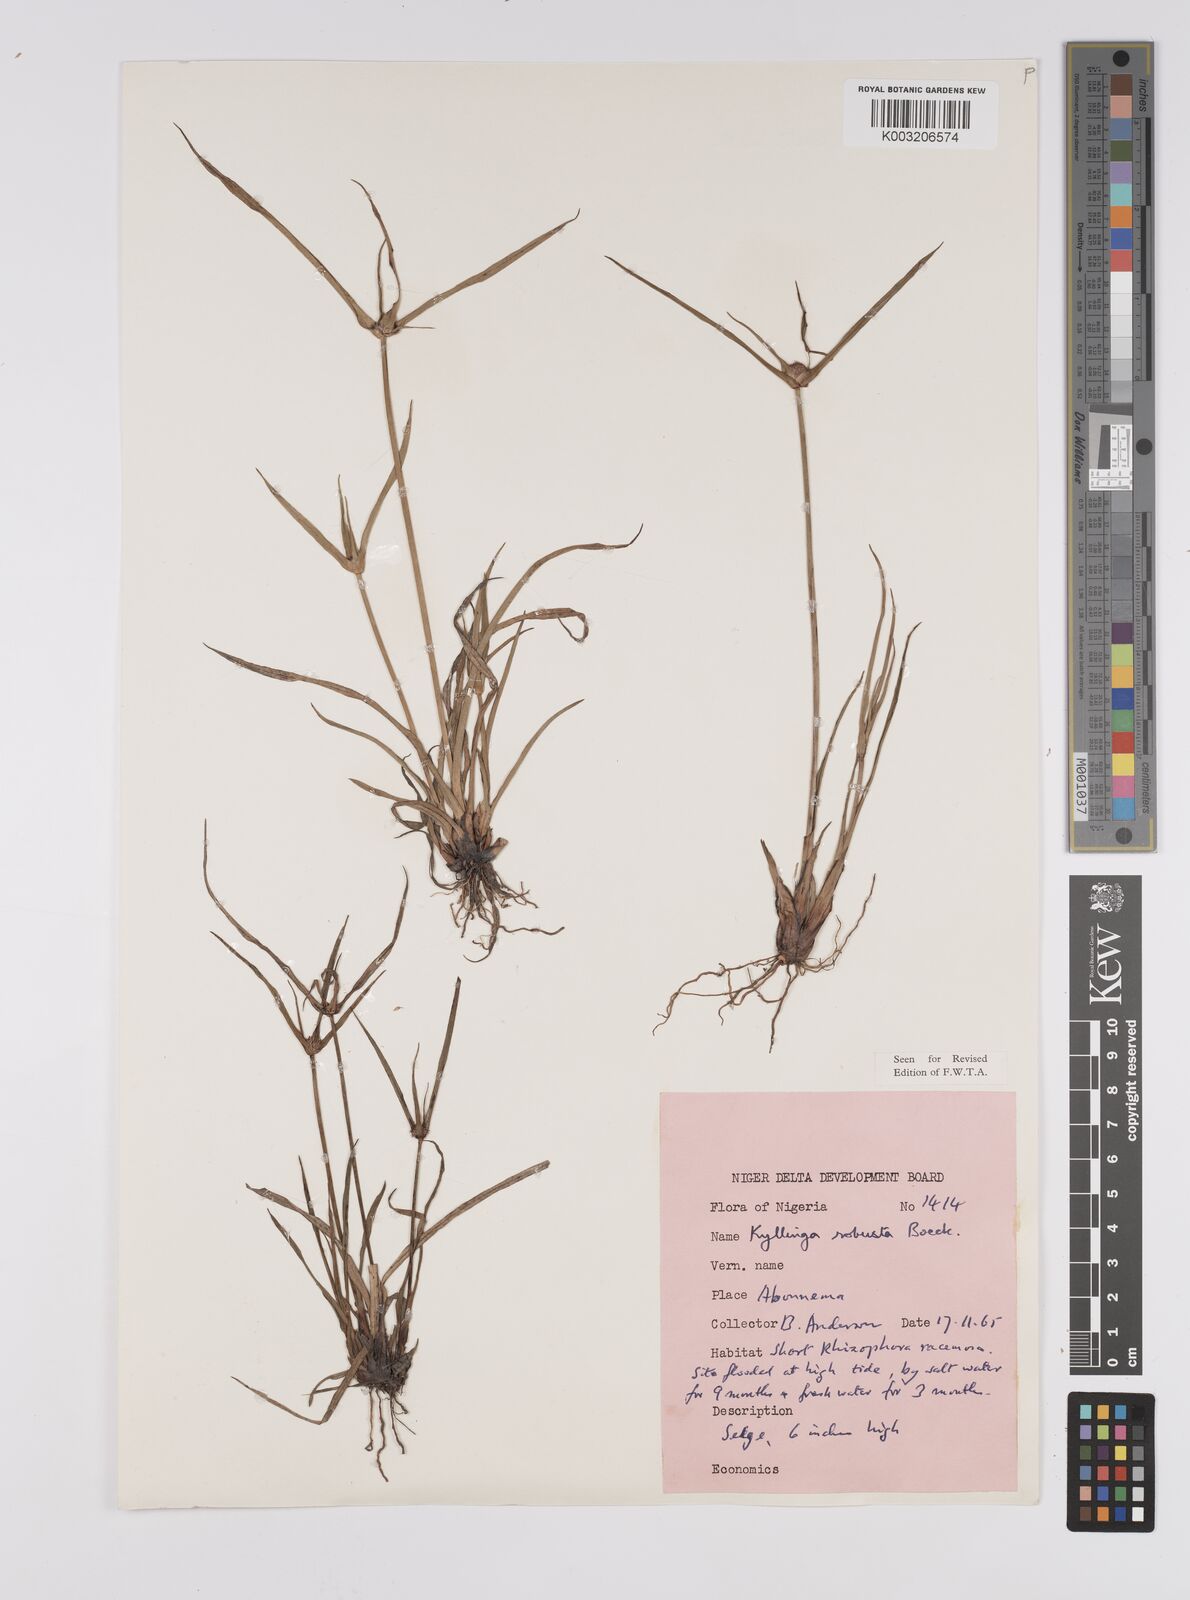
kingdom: Plantae
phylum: Tracheophyta
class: Liliopsida
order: Poales
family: Cyperaceae
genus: Cyperus
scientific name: Cyperus
